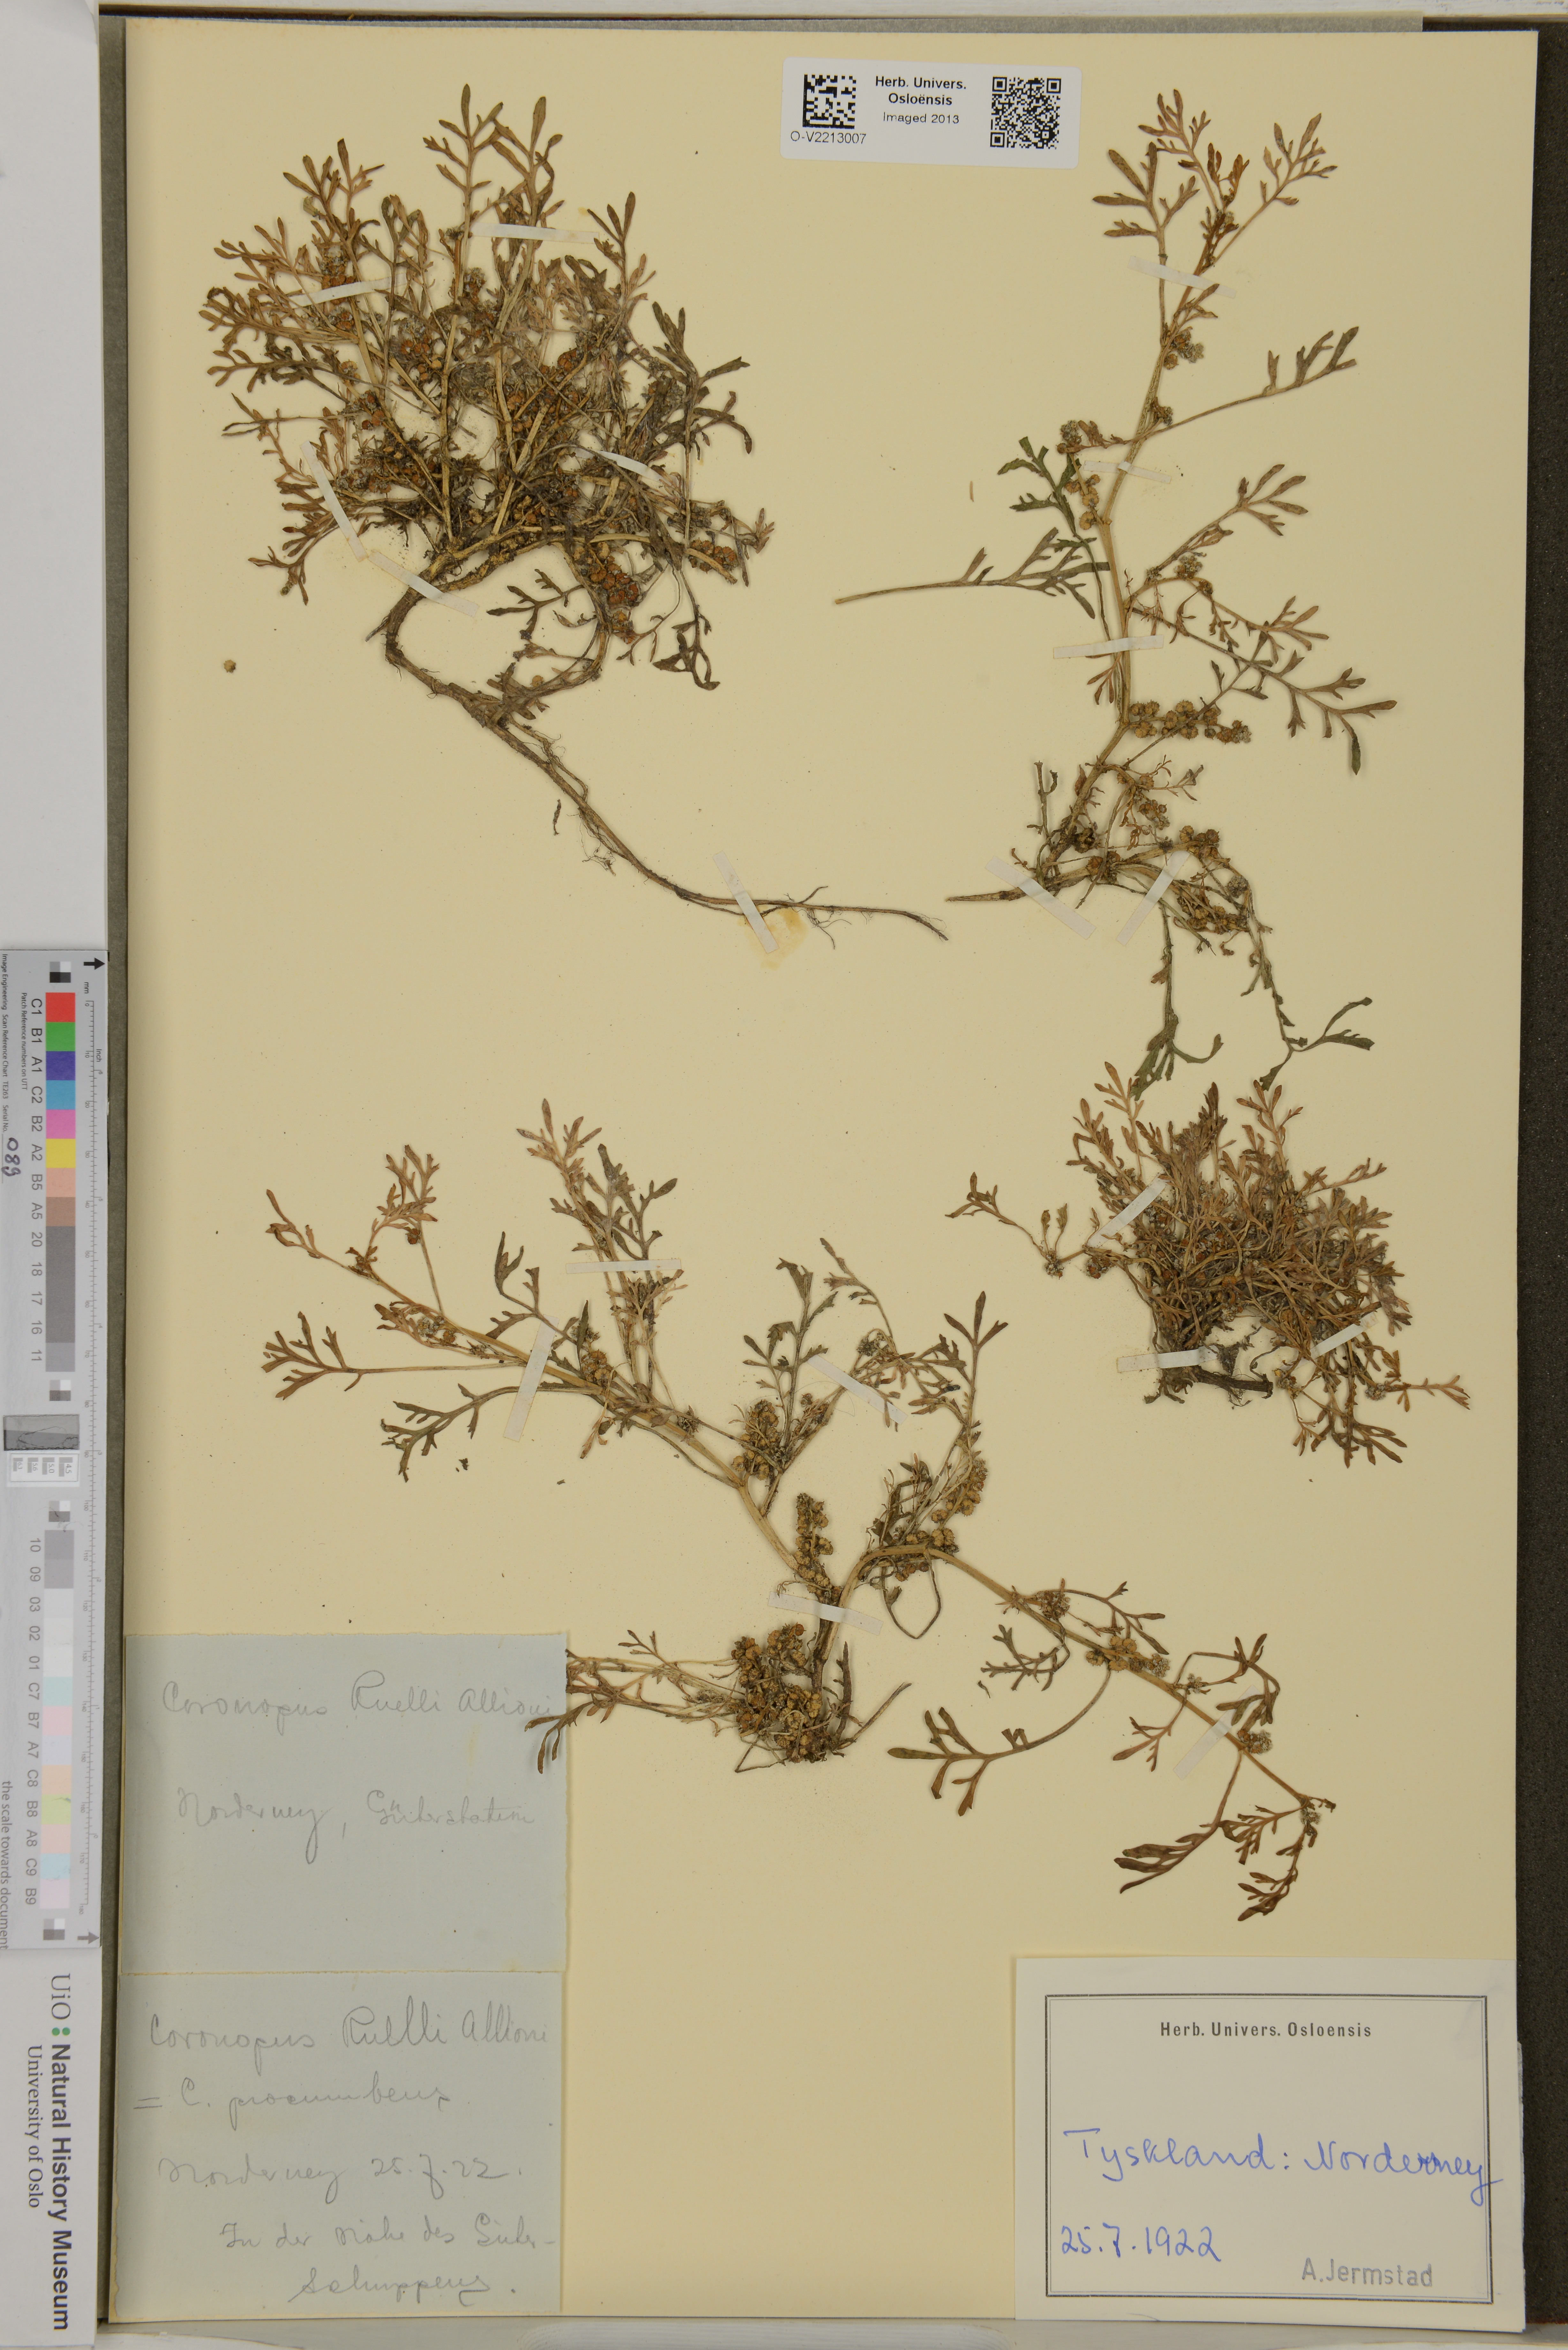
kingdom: Plantae
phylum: Tracheophyta
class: Magnoliopsida
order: Brassicales
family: Brassicaceae
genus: Lepidium
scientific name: Lepidium coronopus
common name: Greater swinecress
